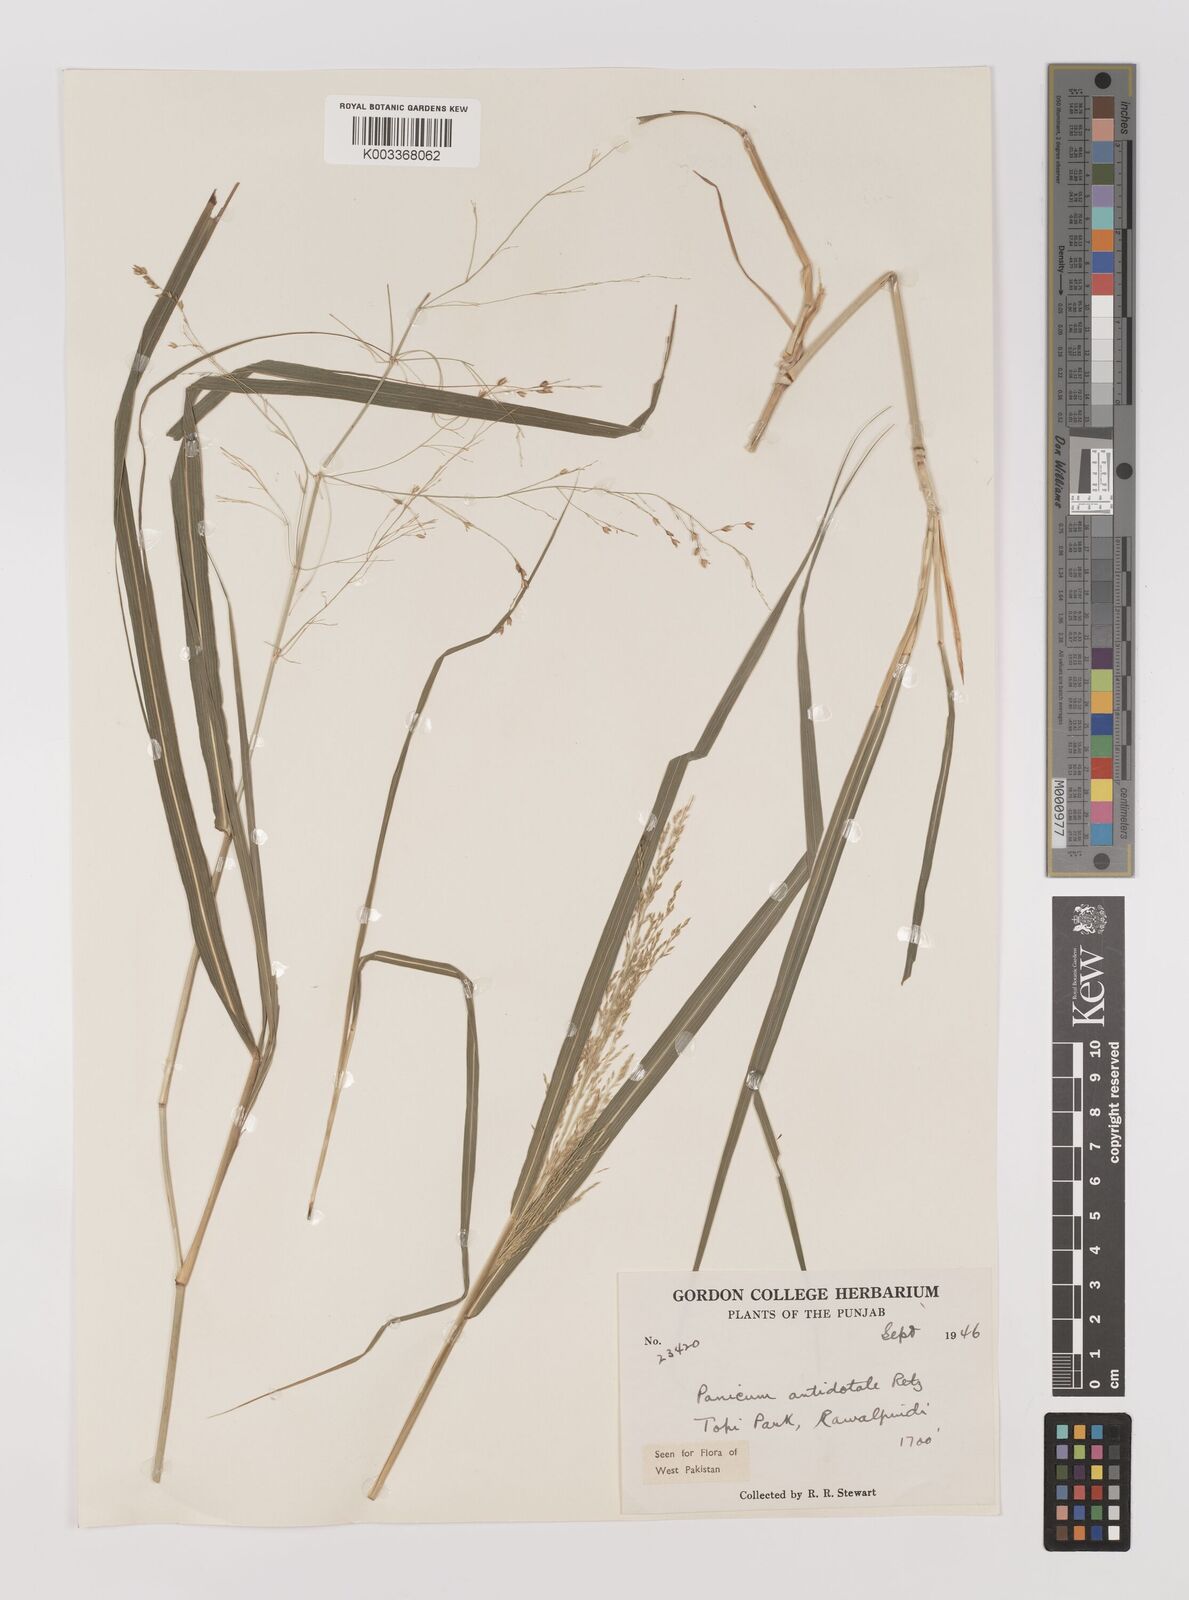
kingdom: Plantae
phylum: Tracheophyta
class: Liliopsida
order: Poales
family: Poaceae
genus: Panicum
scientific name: Panicum antidotale
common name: Blue panicum
